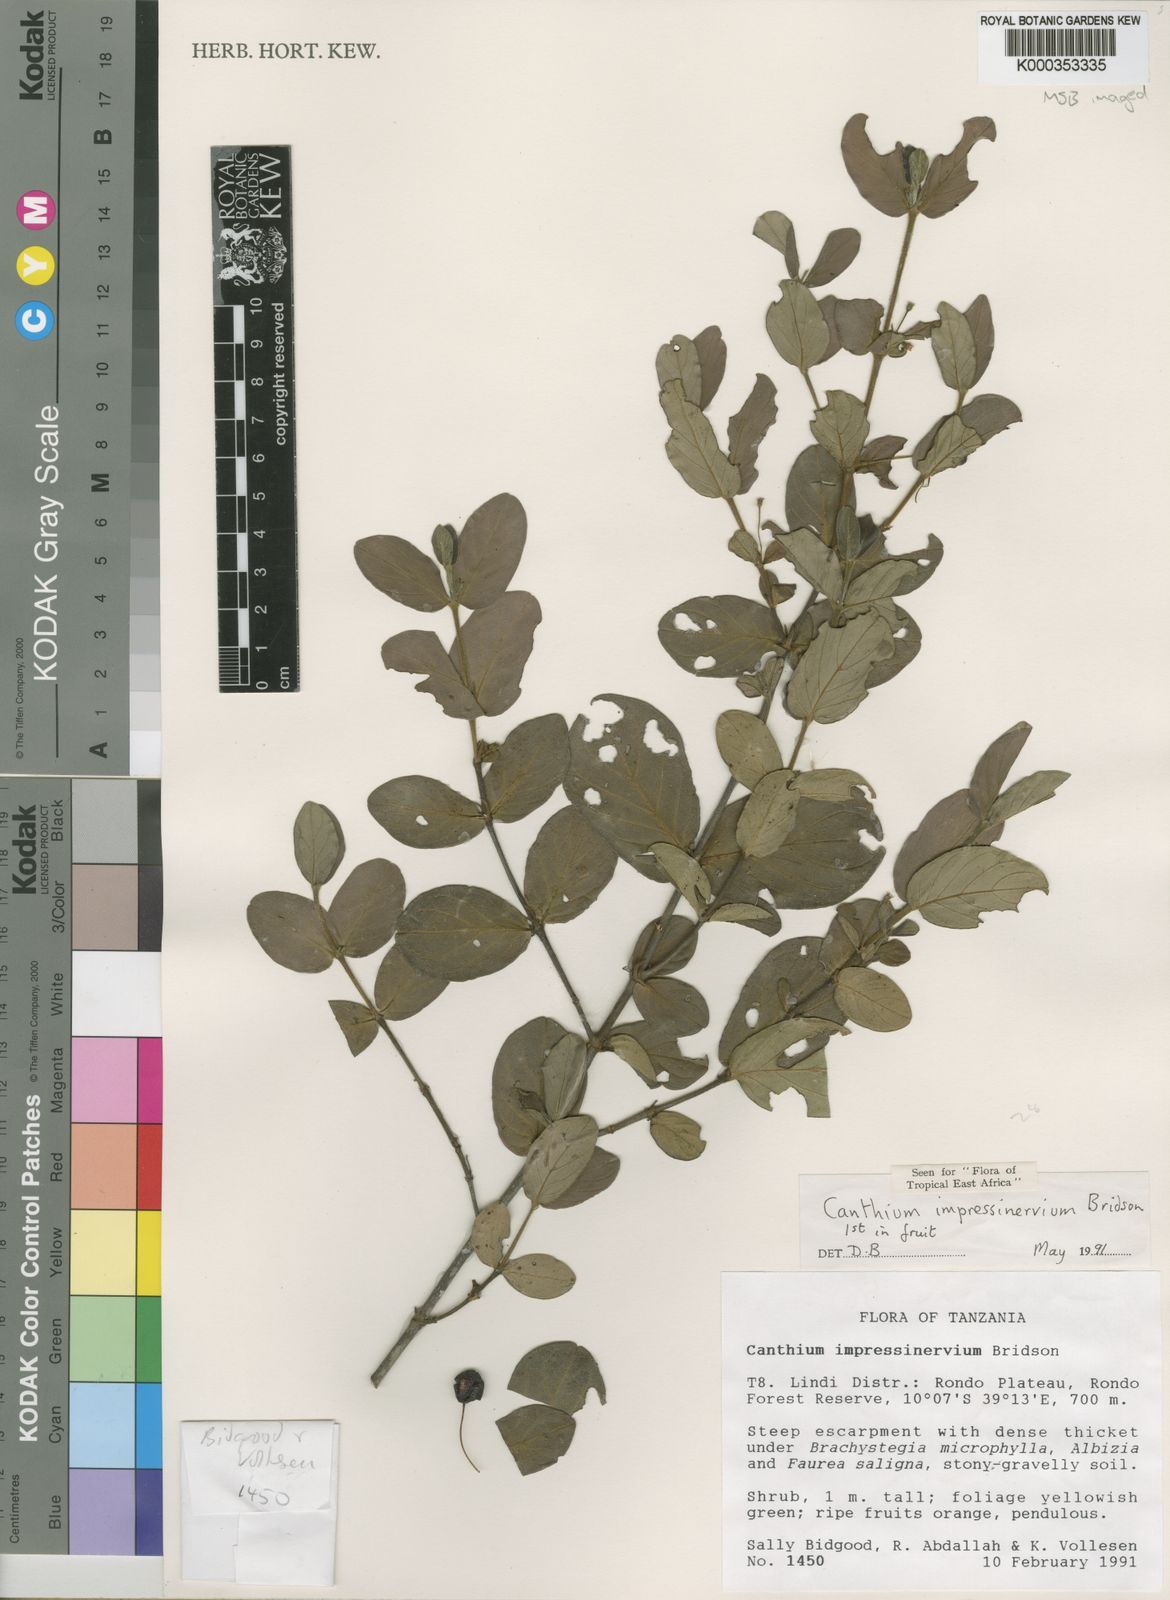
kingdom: Plantae
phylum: Tracheophyta
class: Magnoliopsida
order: Gentianales
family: Rubiaceae
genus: Bullockia
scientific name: Bullockia impressinervia
